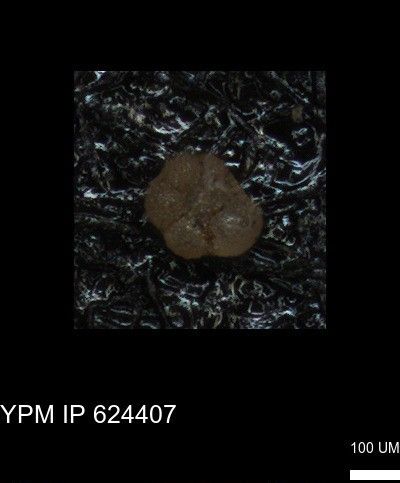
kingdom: Chromista
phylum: Foraminifera
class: Globothalamea
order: Rotaliida
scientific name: Rotaliida
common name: forams
